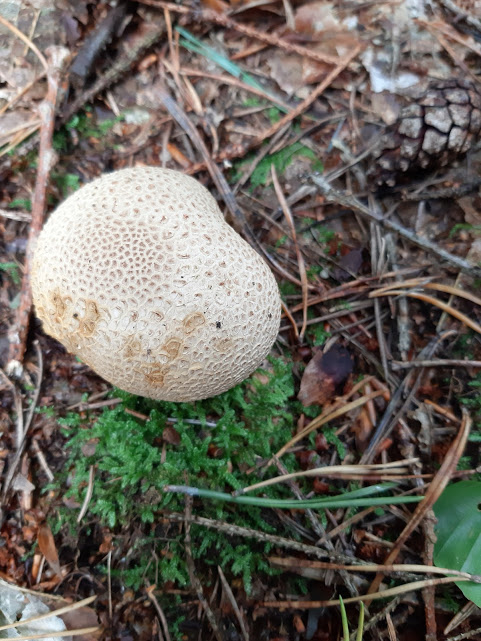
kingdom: Fungi
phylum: Basidiomycota
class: Agaricomycetes
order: Boletales
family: Sclerodermataceae
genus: Scleroderma
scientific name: Scleroderma citrinum
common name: almindelig bruskbold
